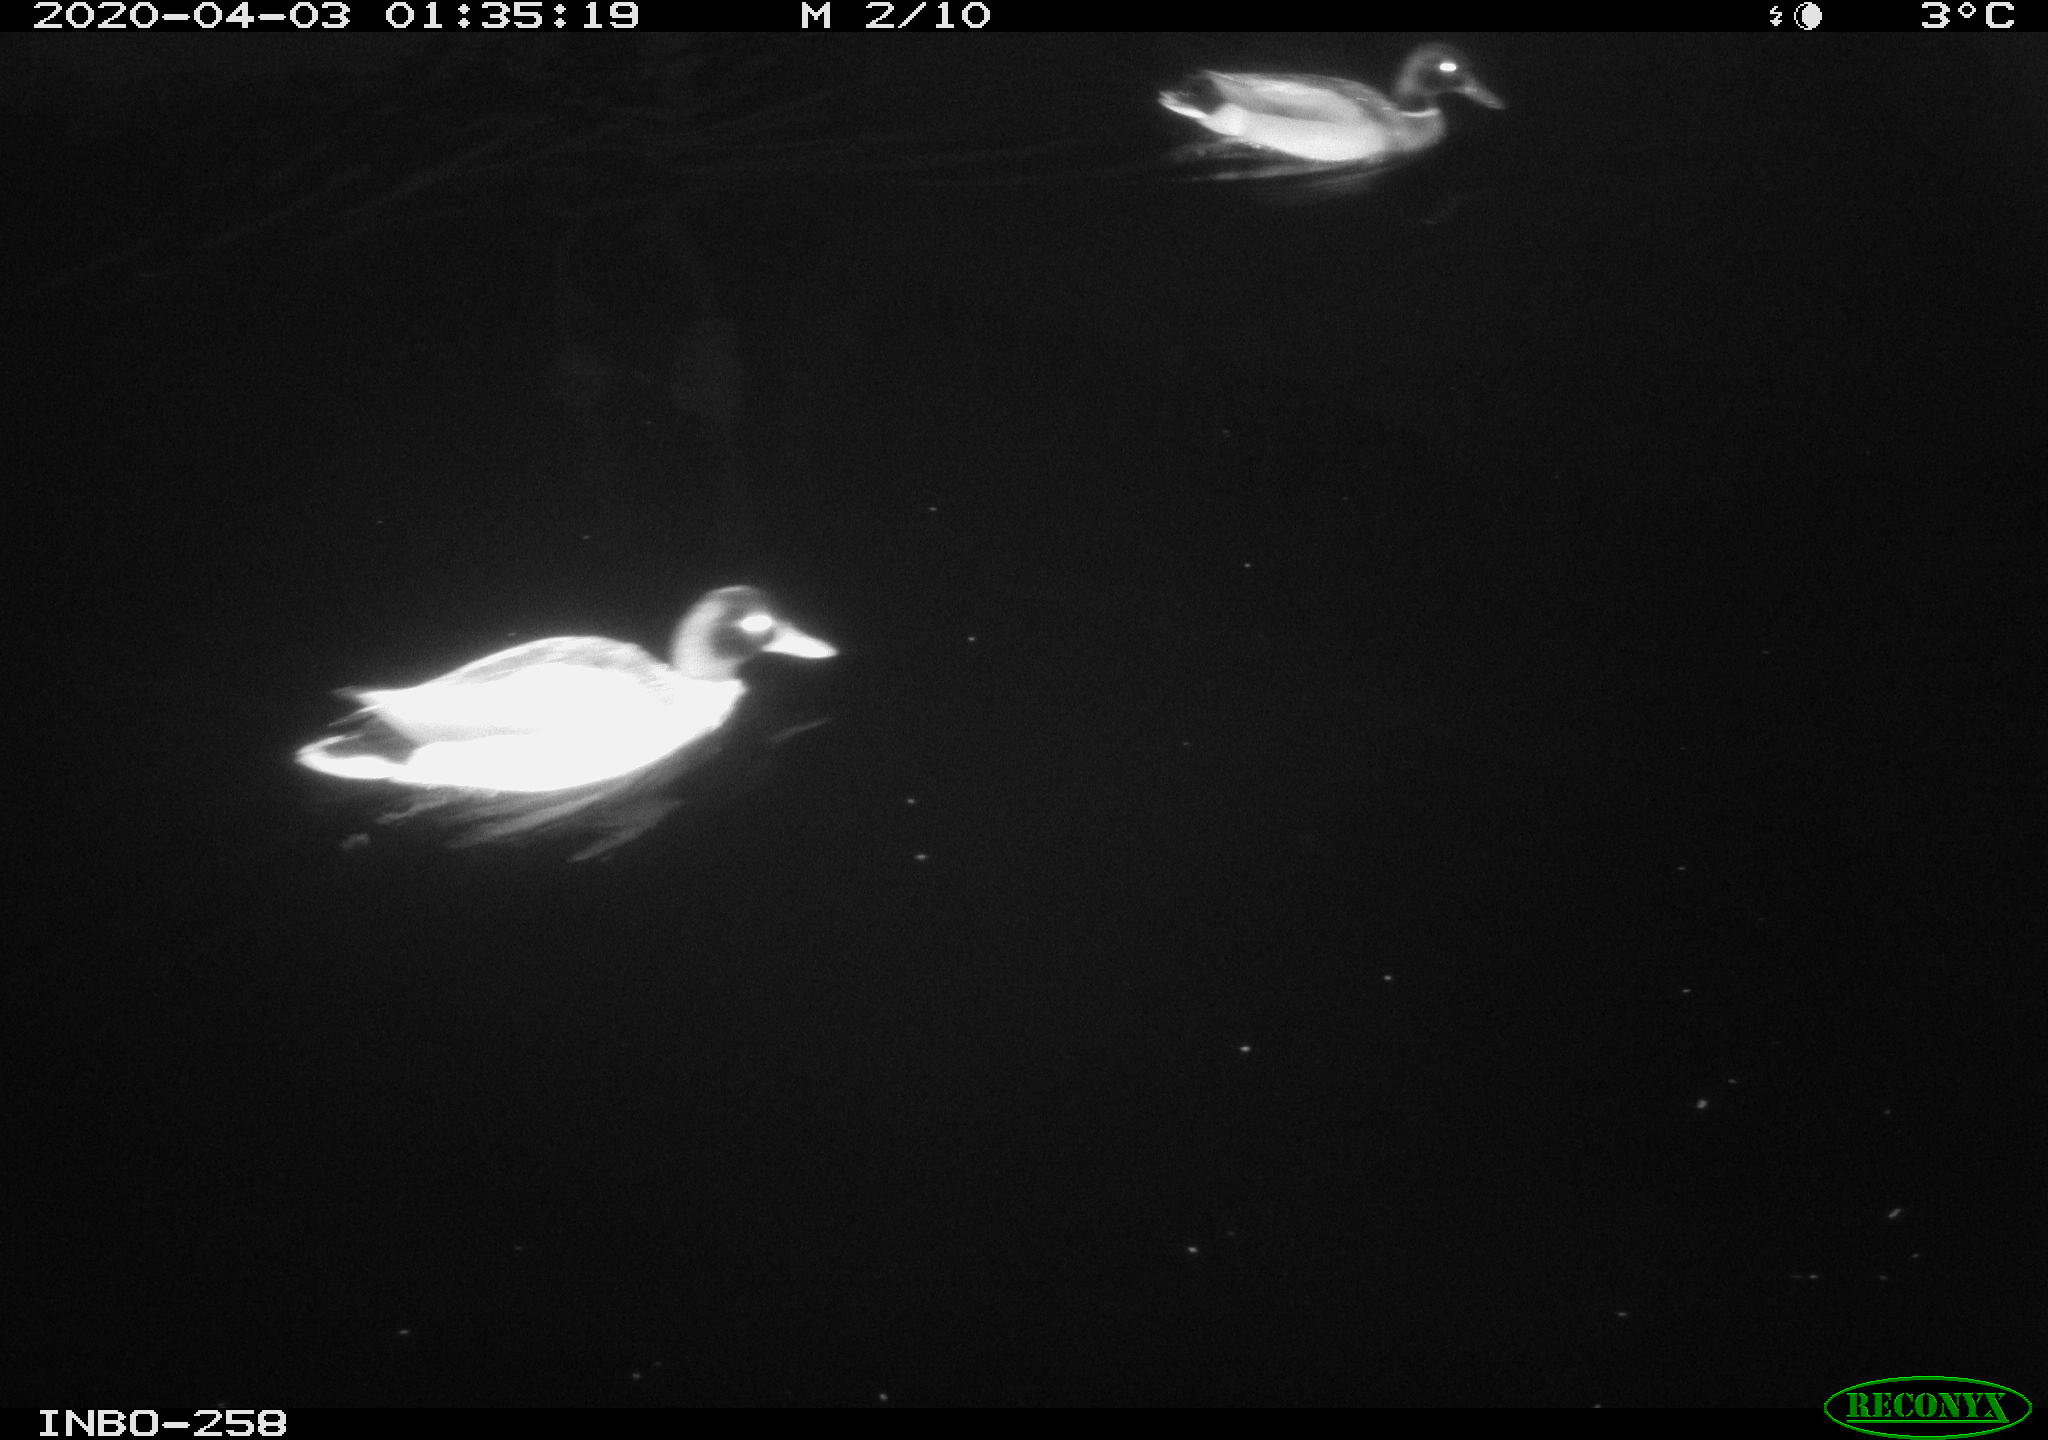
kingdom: Animalia
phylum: Chordata
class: Aves
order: Anseriformes
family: Anatidae
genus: Anas
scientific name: Anas platyrhynchos
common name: Mallard
